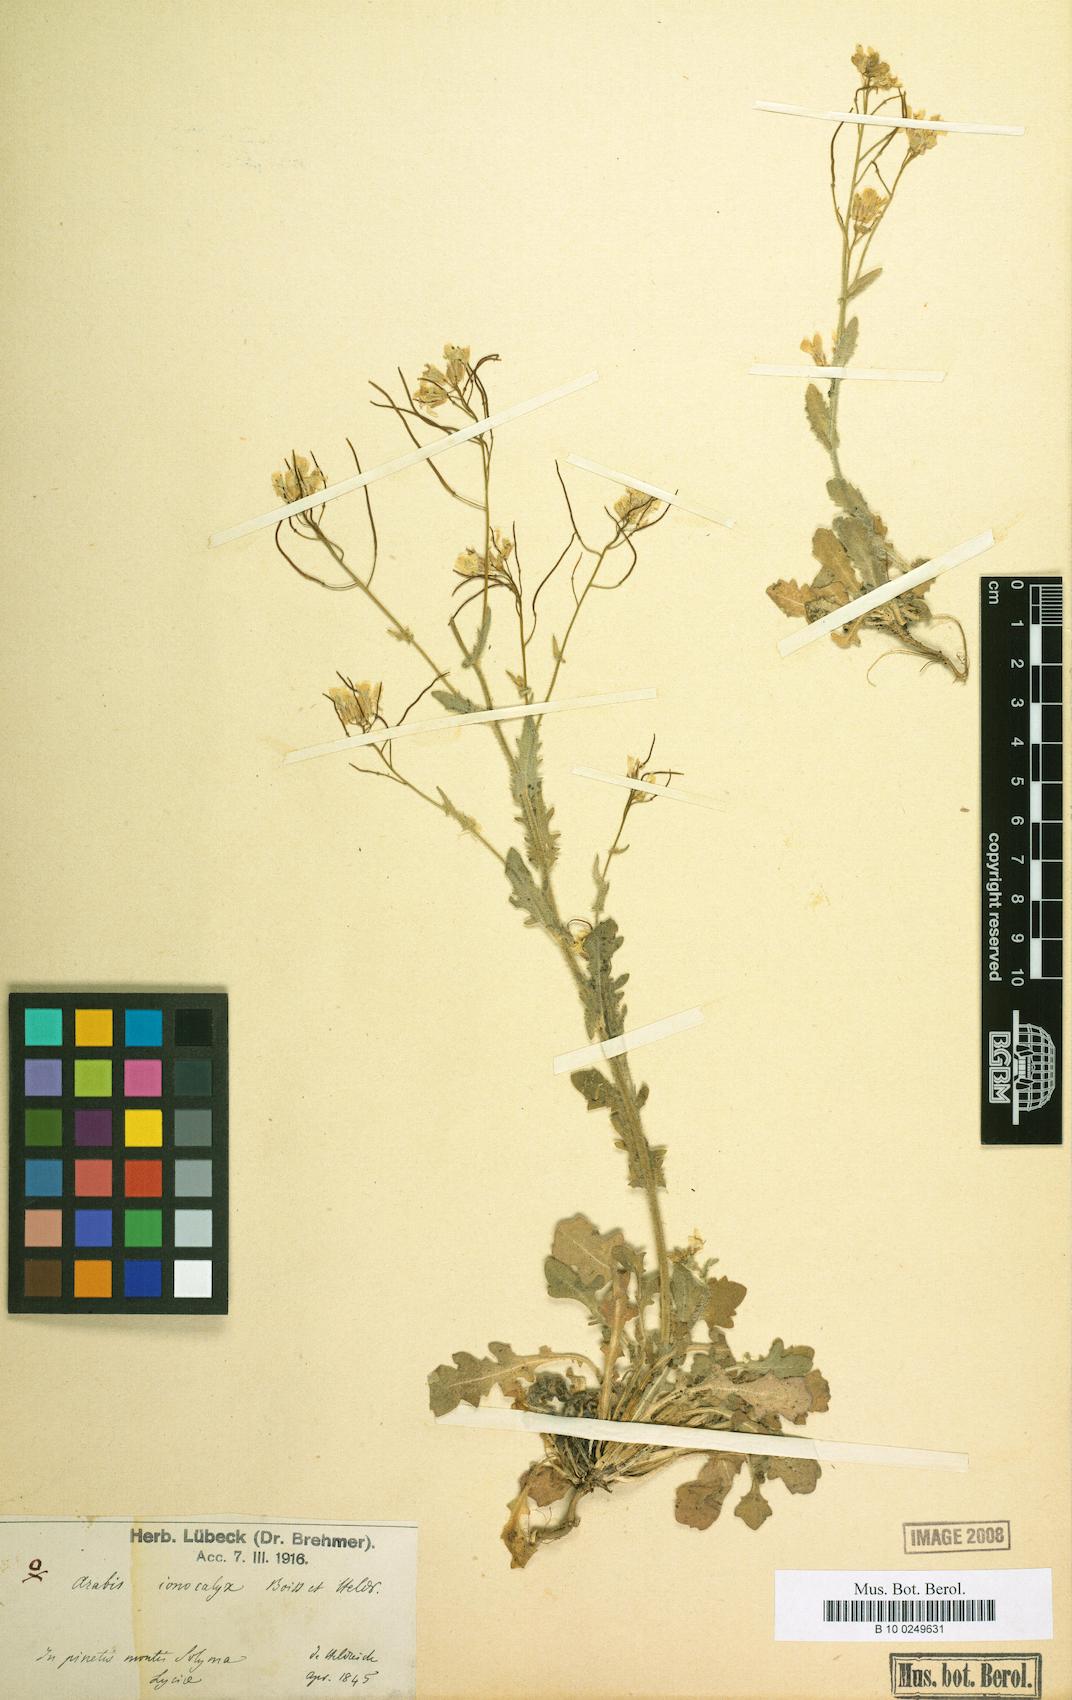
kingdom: Plantae
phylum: Tracheophyta
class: Magnoliopsida
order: Brassicales
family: Brassicaceae
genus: Arabis
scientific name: Arabis ionocalyx
